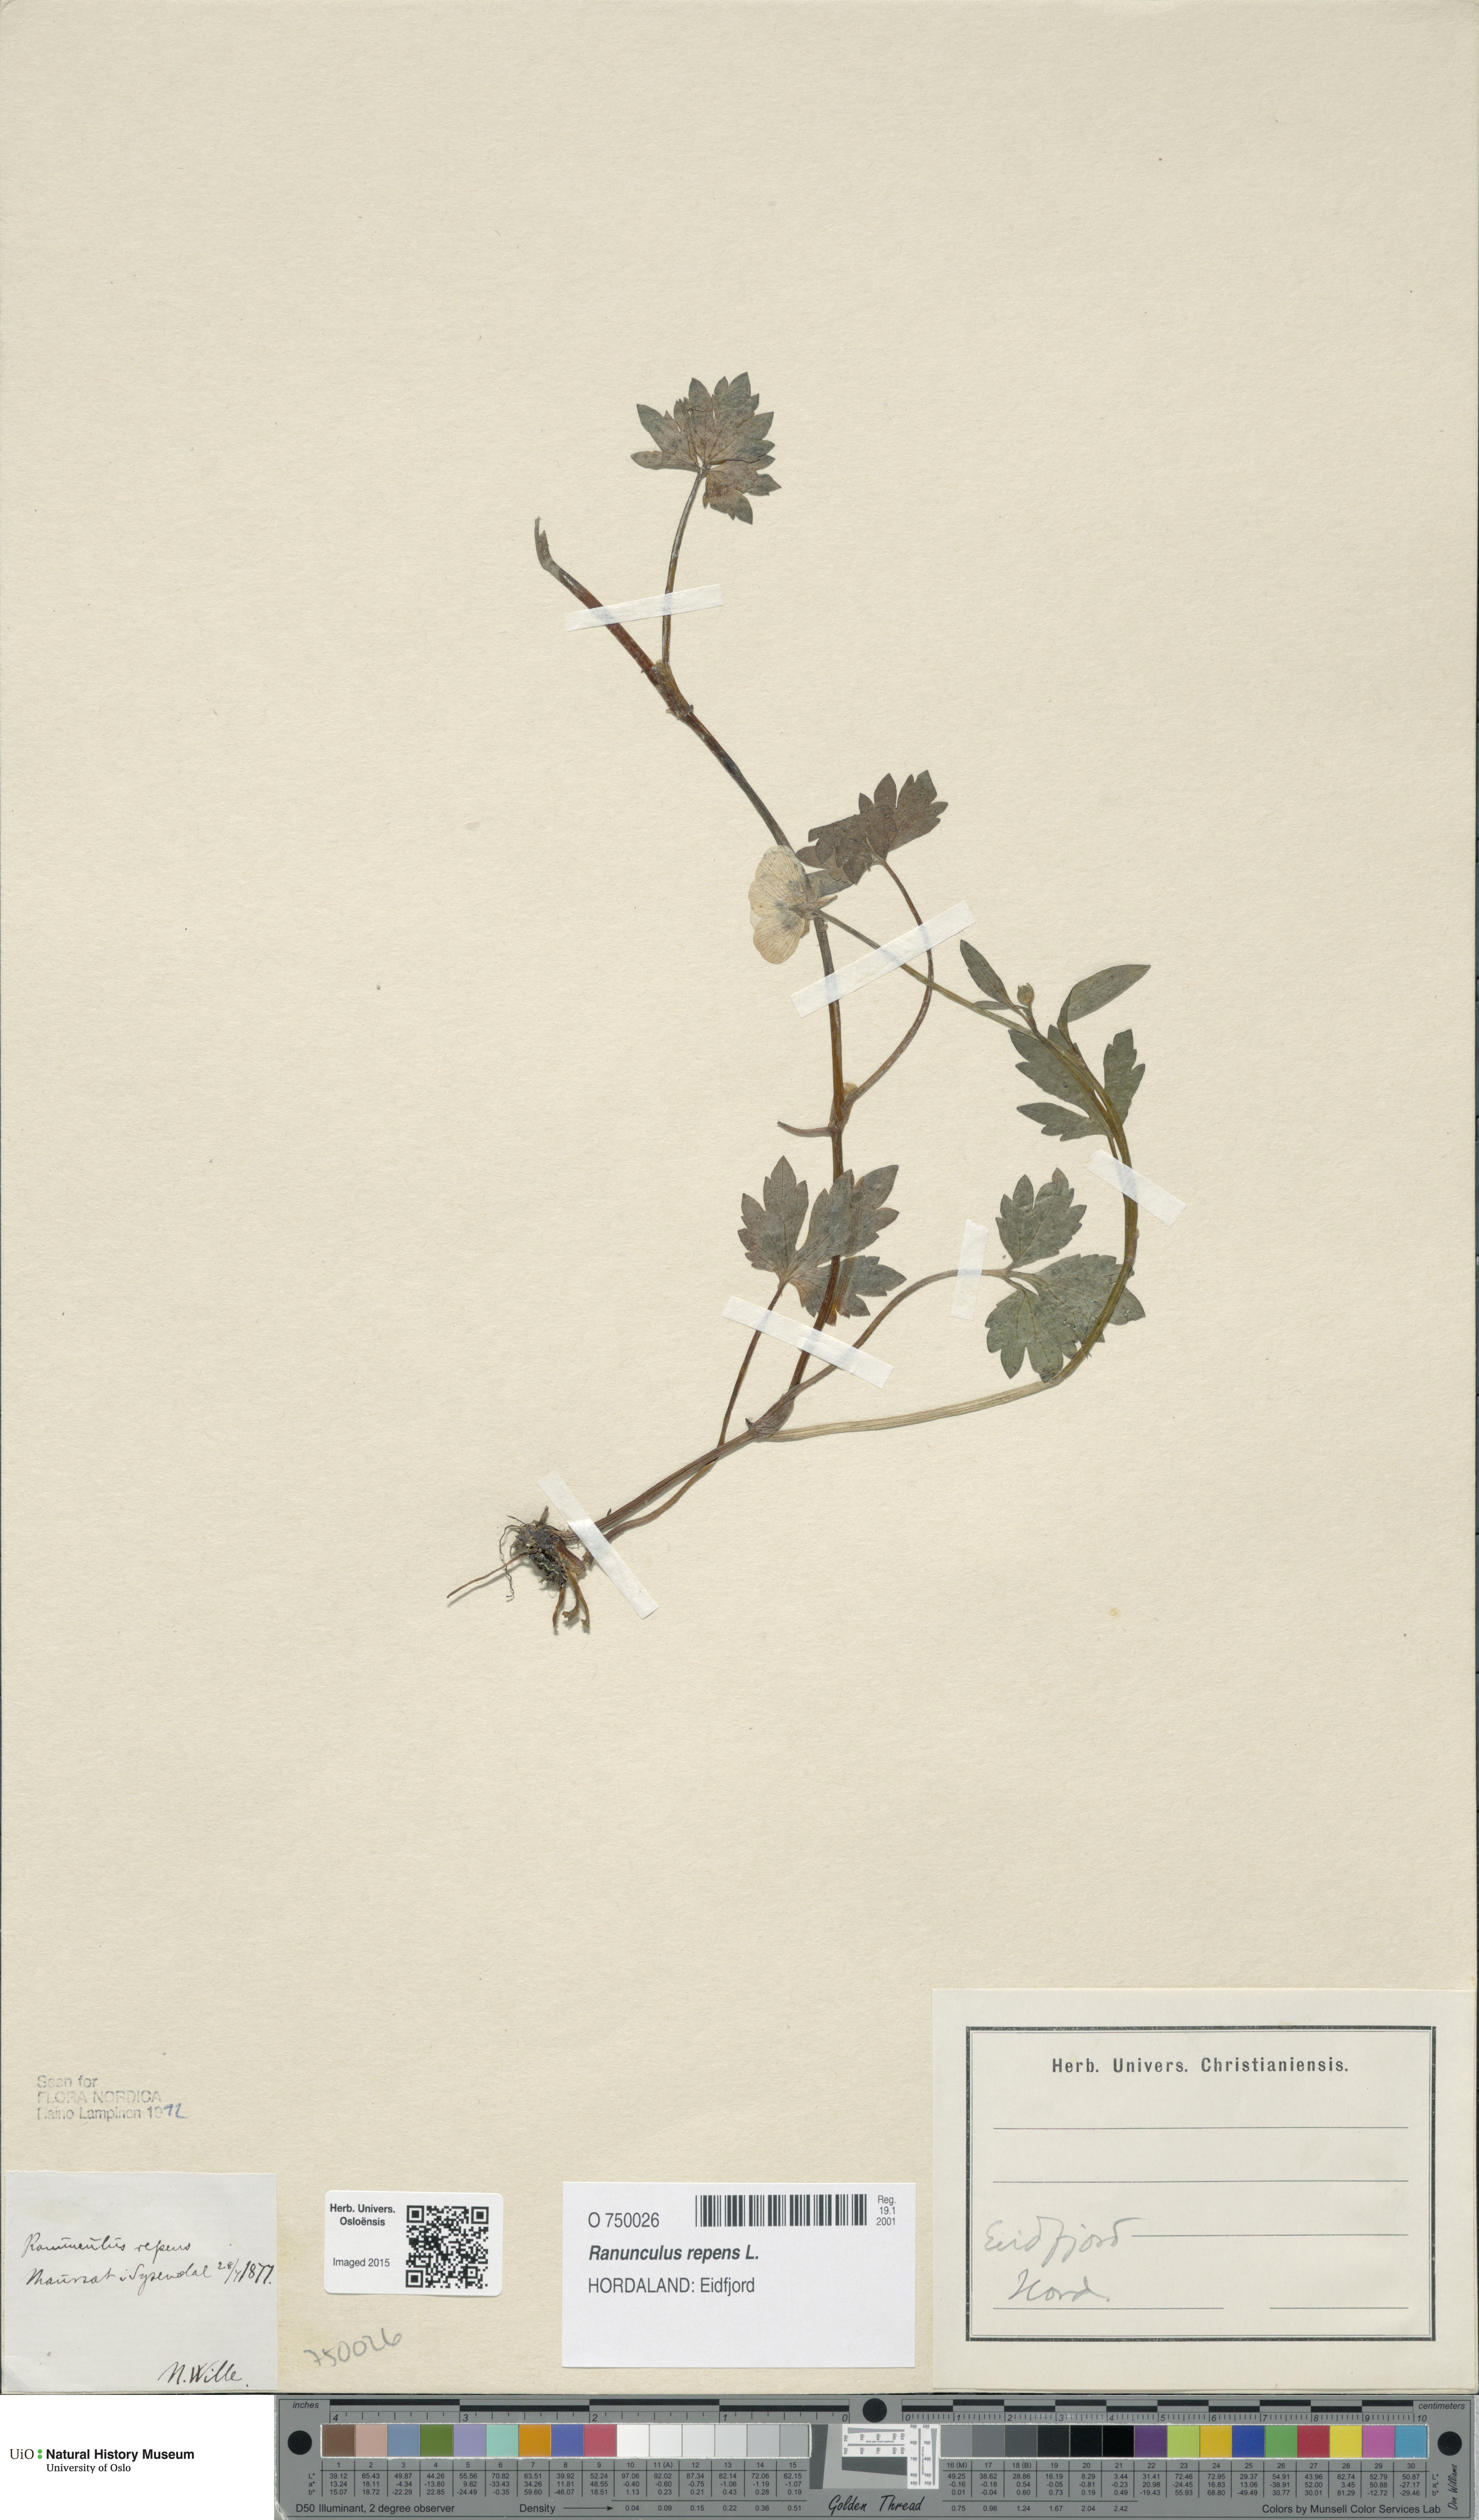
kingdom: Plantae
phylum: Tracheophyta
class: Magnoliopsida
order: Ranunculales
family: Ranunculaceae
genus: Ranunculus
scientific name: Ranunculus repens
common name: Creeping buttercup
